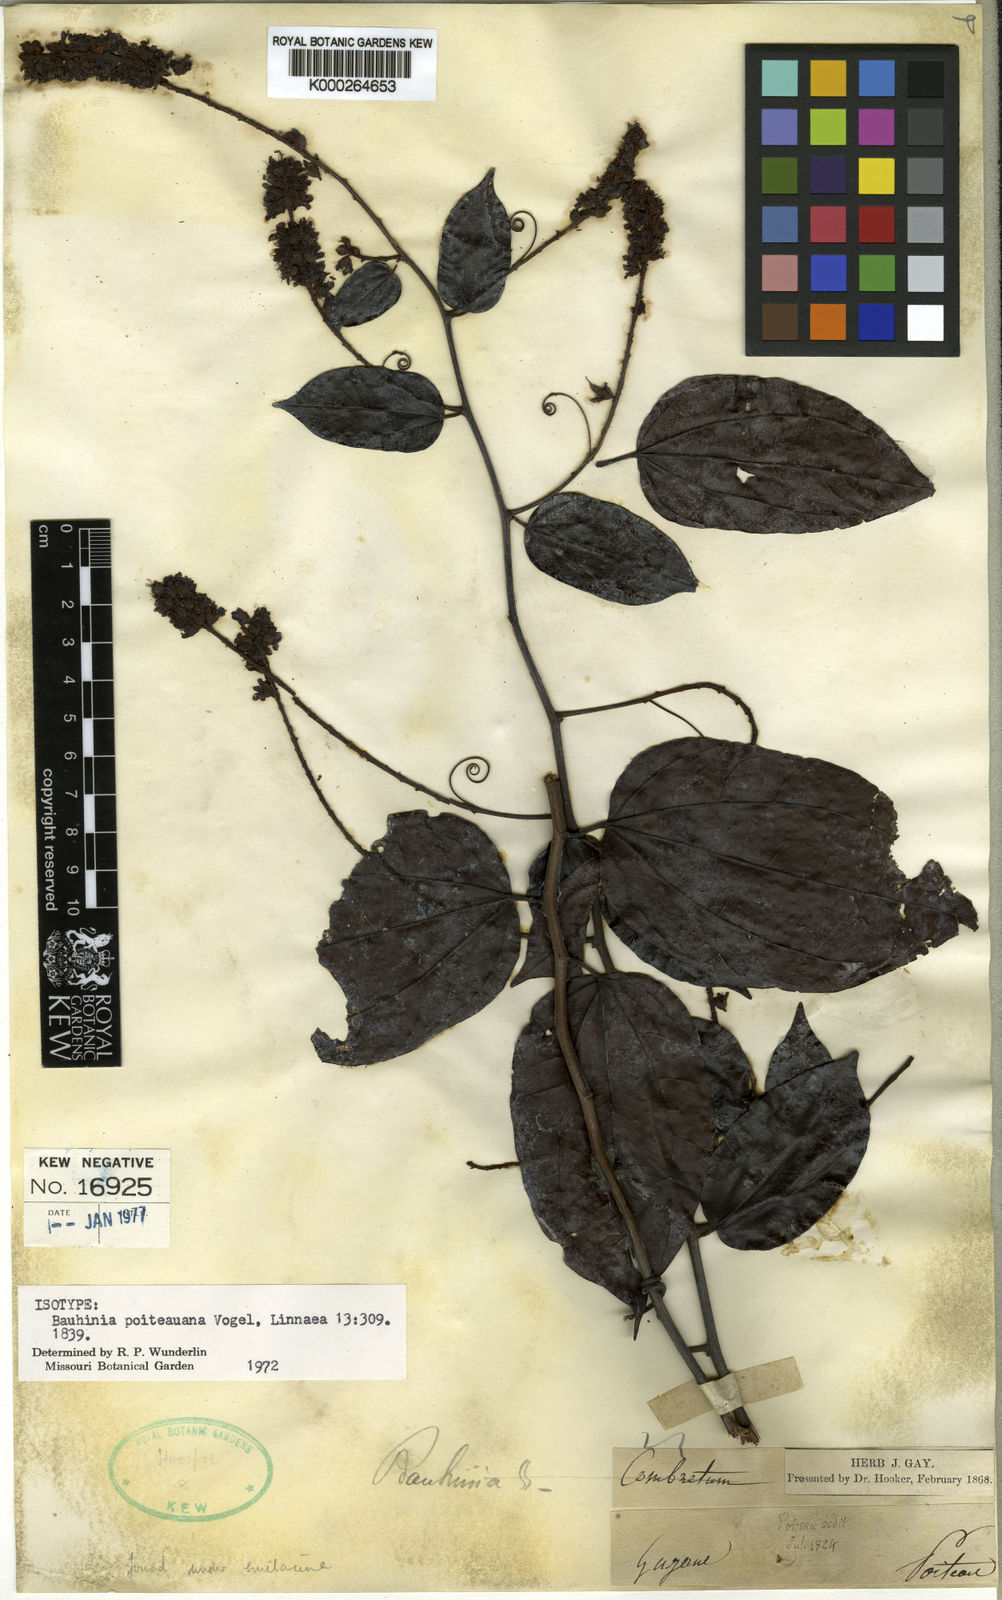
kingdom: Plantae
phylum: Tracheophyta
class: Magnoliopsida
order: Fabales
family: Fabaceae
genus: Schnella
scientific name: Schnella poiteauana
